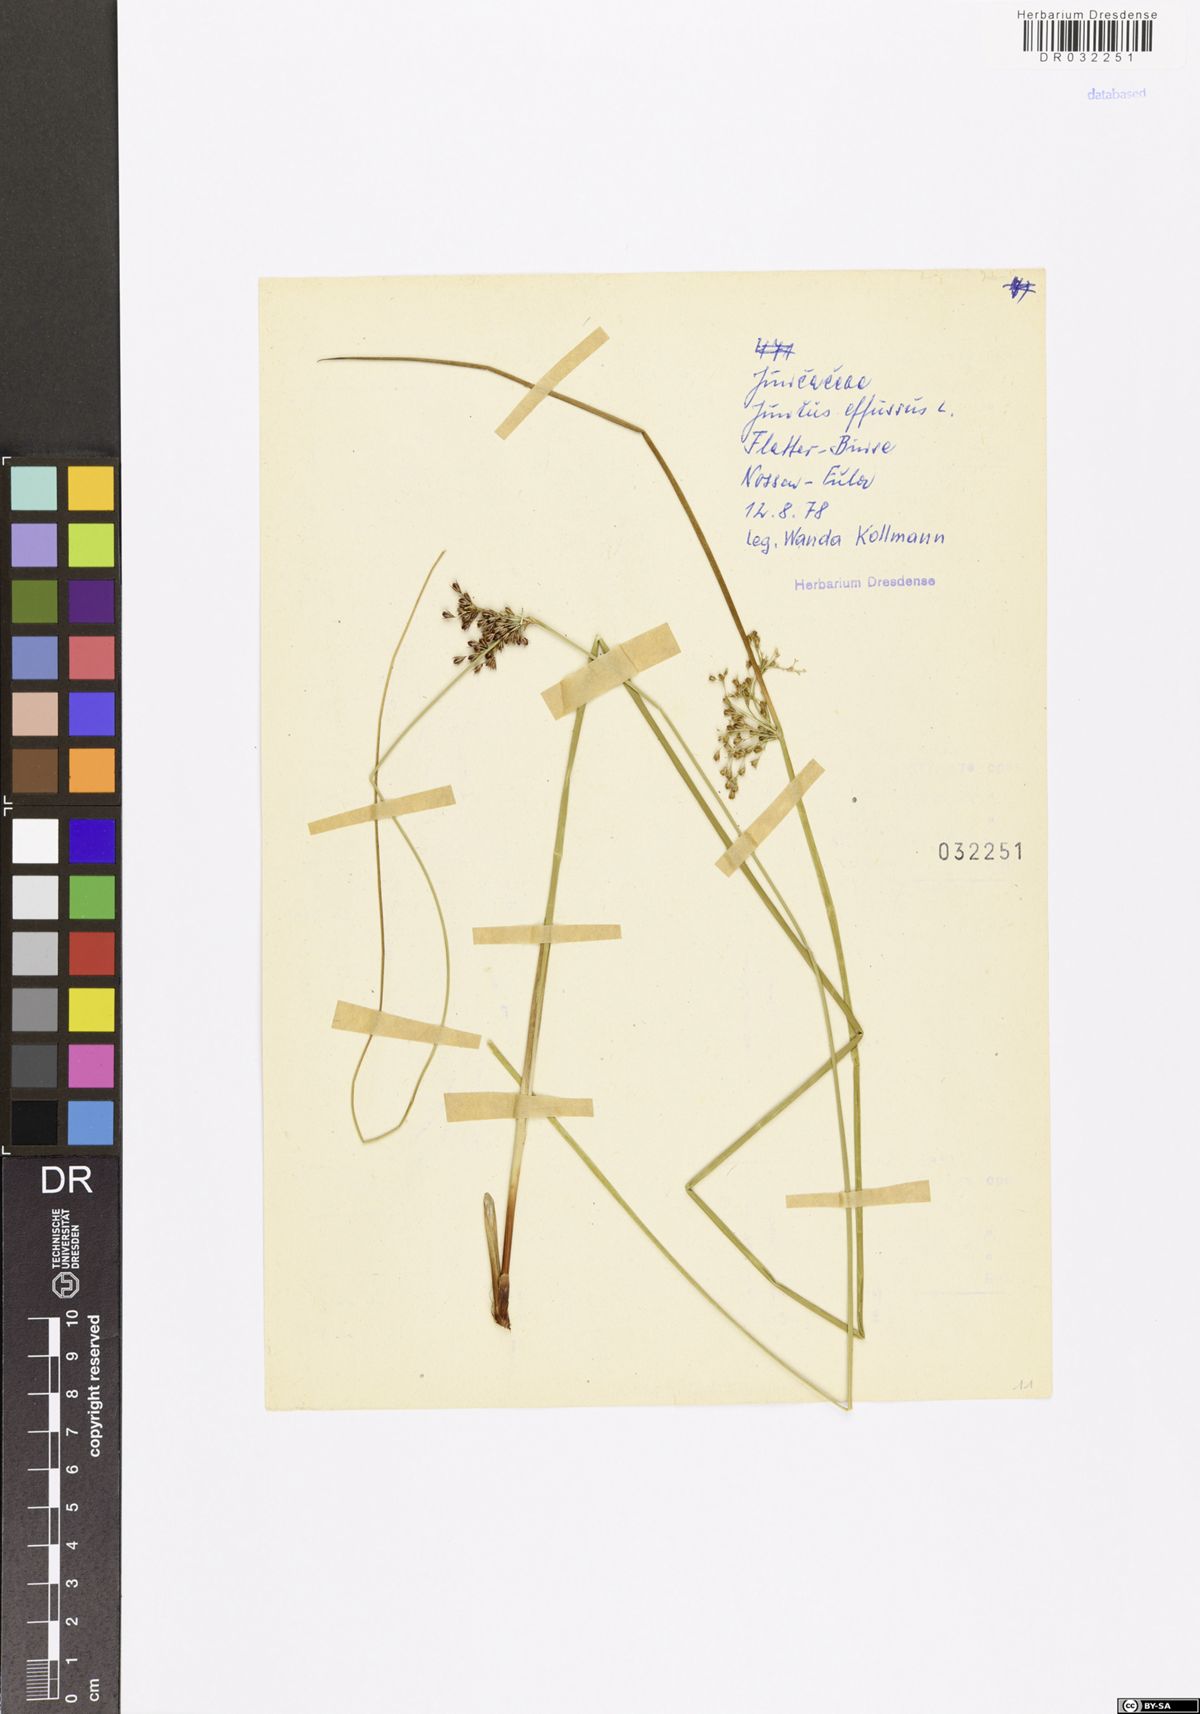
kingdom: Plantae
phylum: Tracheophyta
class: Liliopsida
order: Poales
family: Juncaceae
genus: Juncus
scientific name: Juncus effusus
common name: Soft rush
